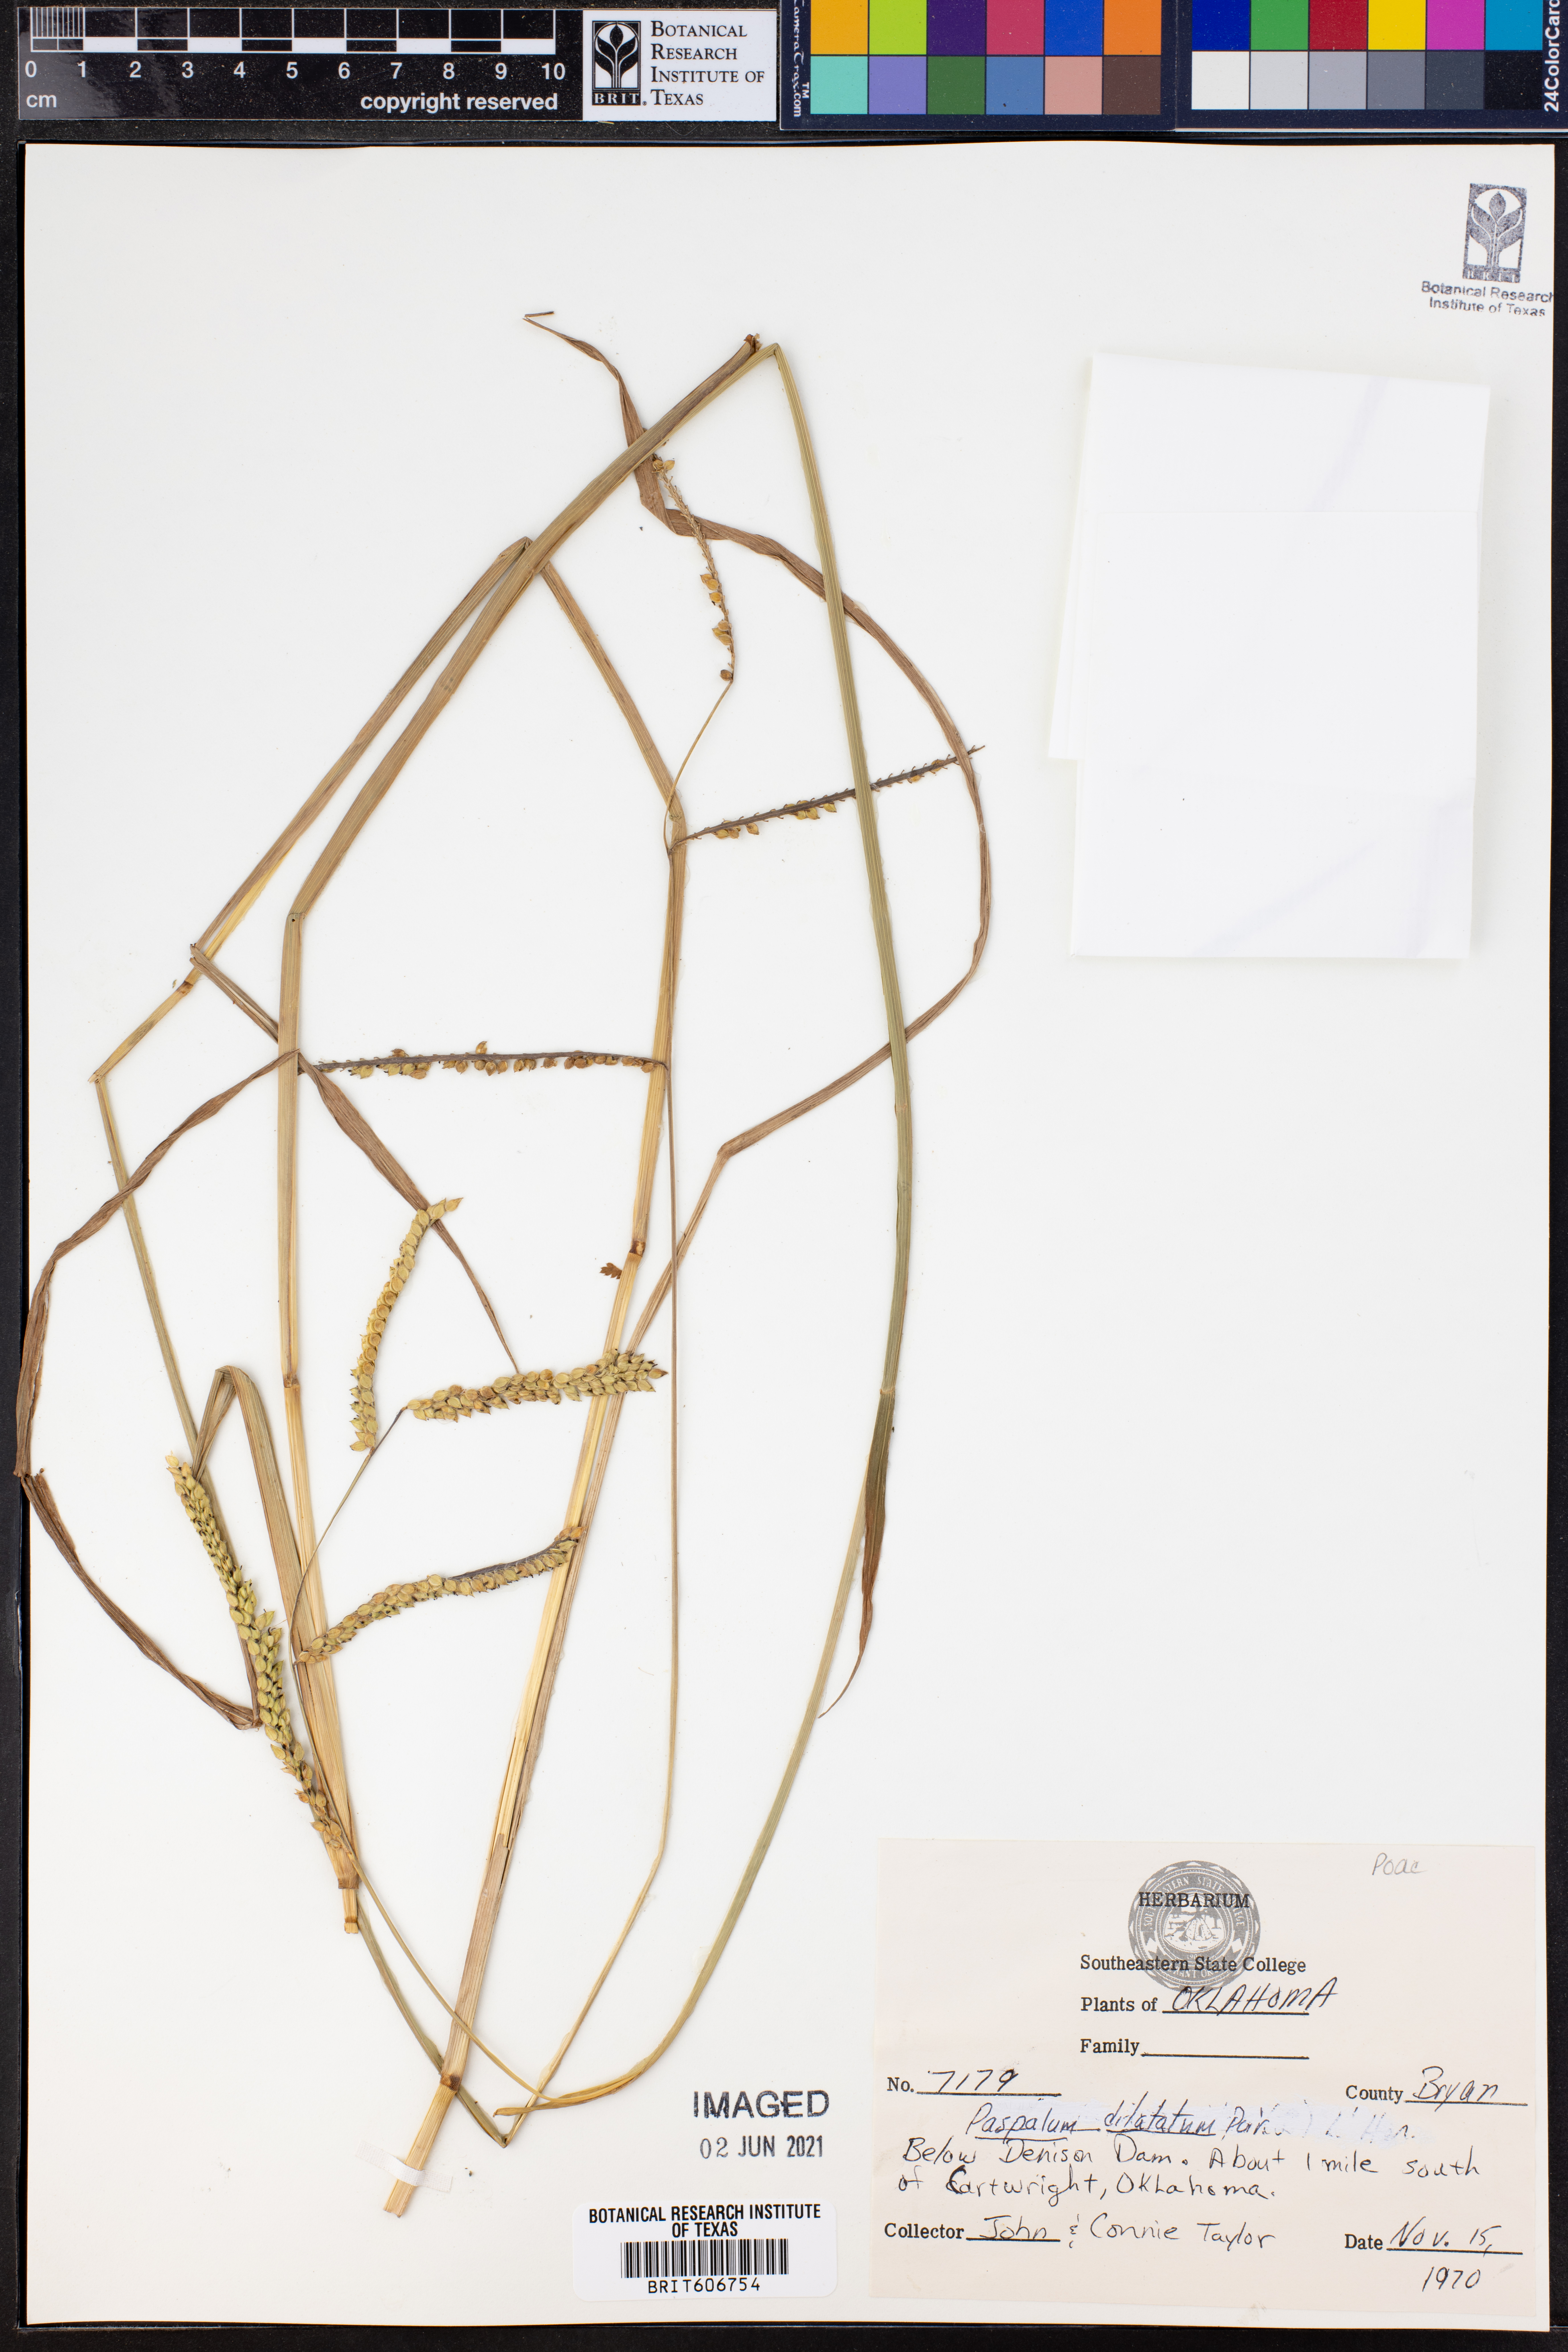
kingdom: Plantae
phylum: Tracheophyta
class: Liliopsida
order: Poales
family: Poaceae
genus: Paspalum
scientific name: Paspalum dilatatum
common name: Dallisgrass
